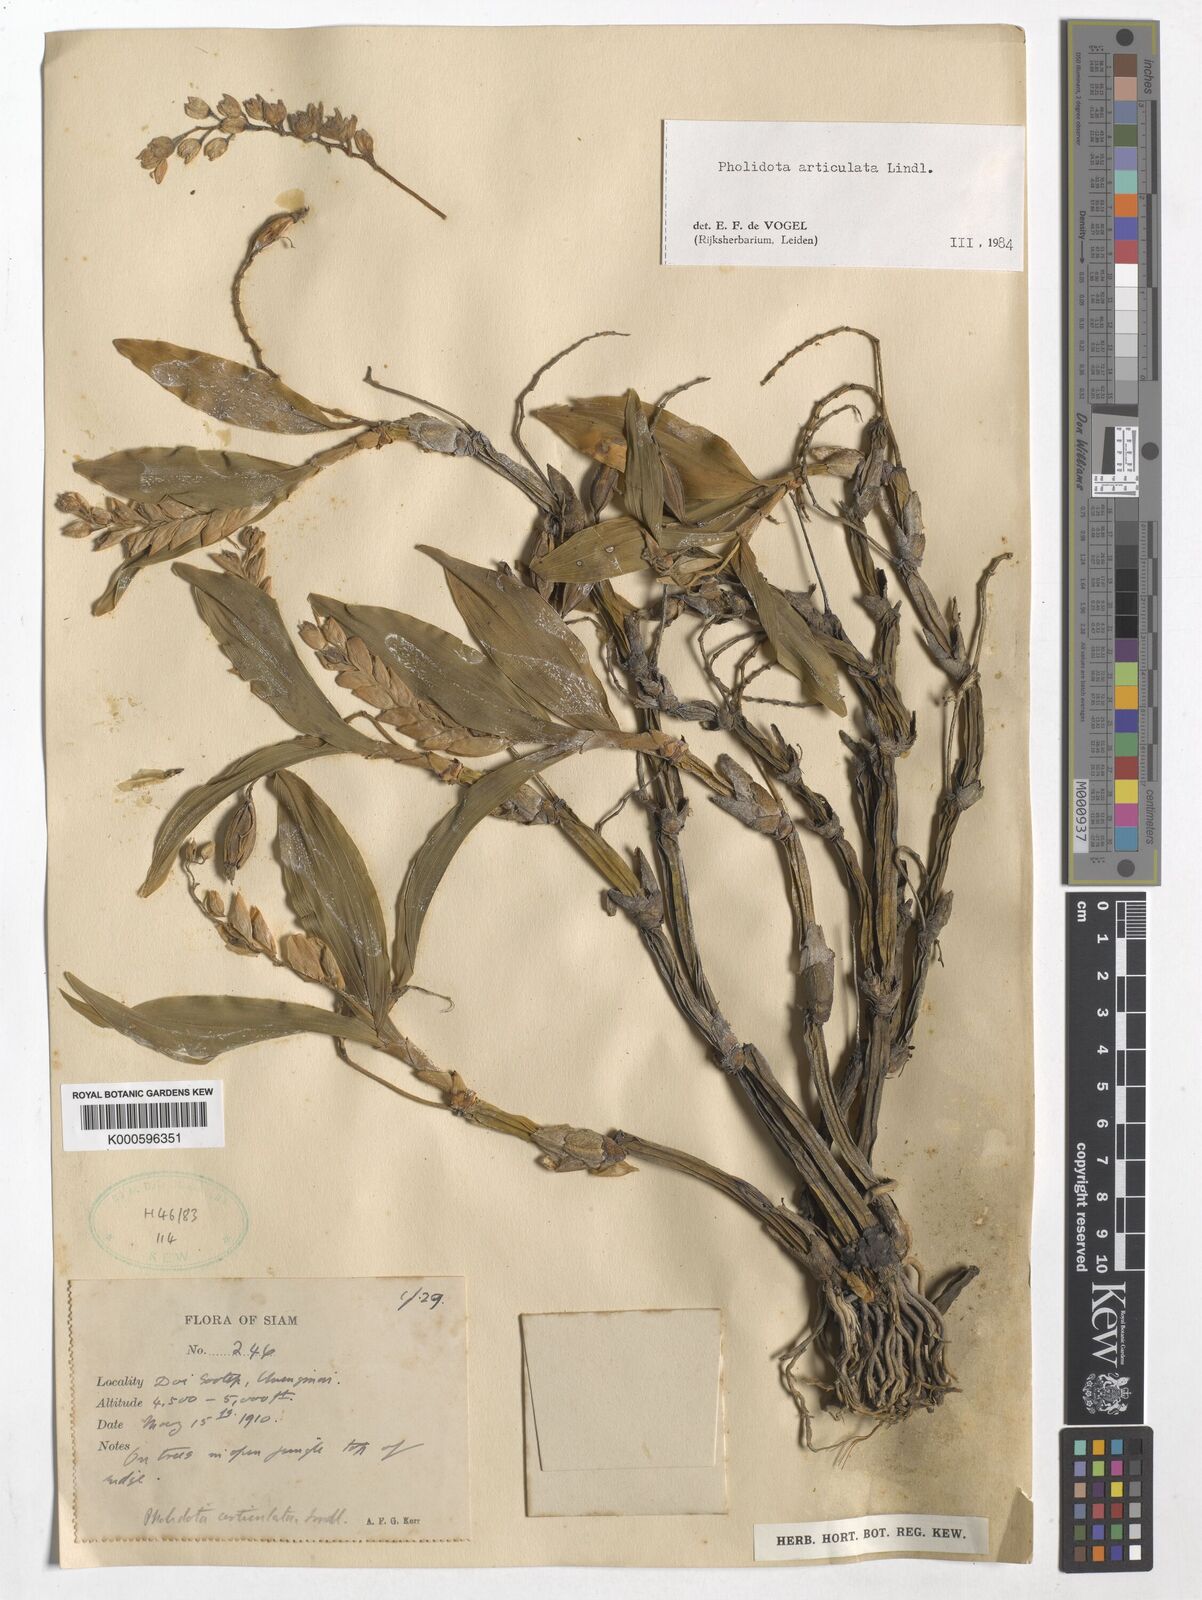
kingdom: Plantae
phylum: Tracheophyta
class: Liliopsida
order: Asparagales
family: Orchidaceae
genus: Coelogyne
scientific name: Coelogyne articulata
